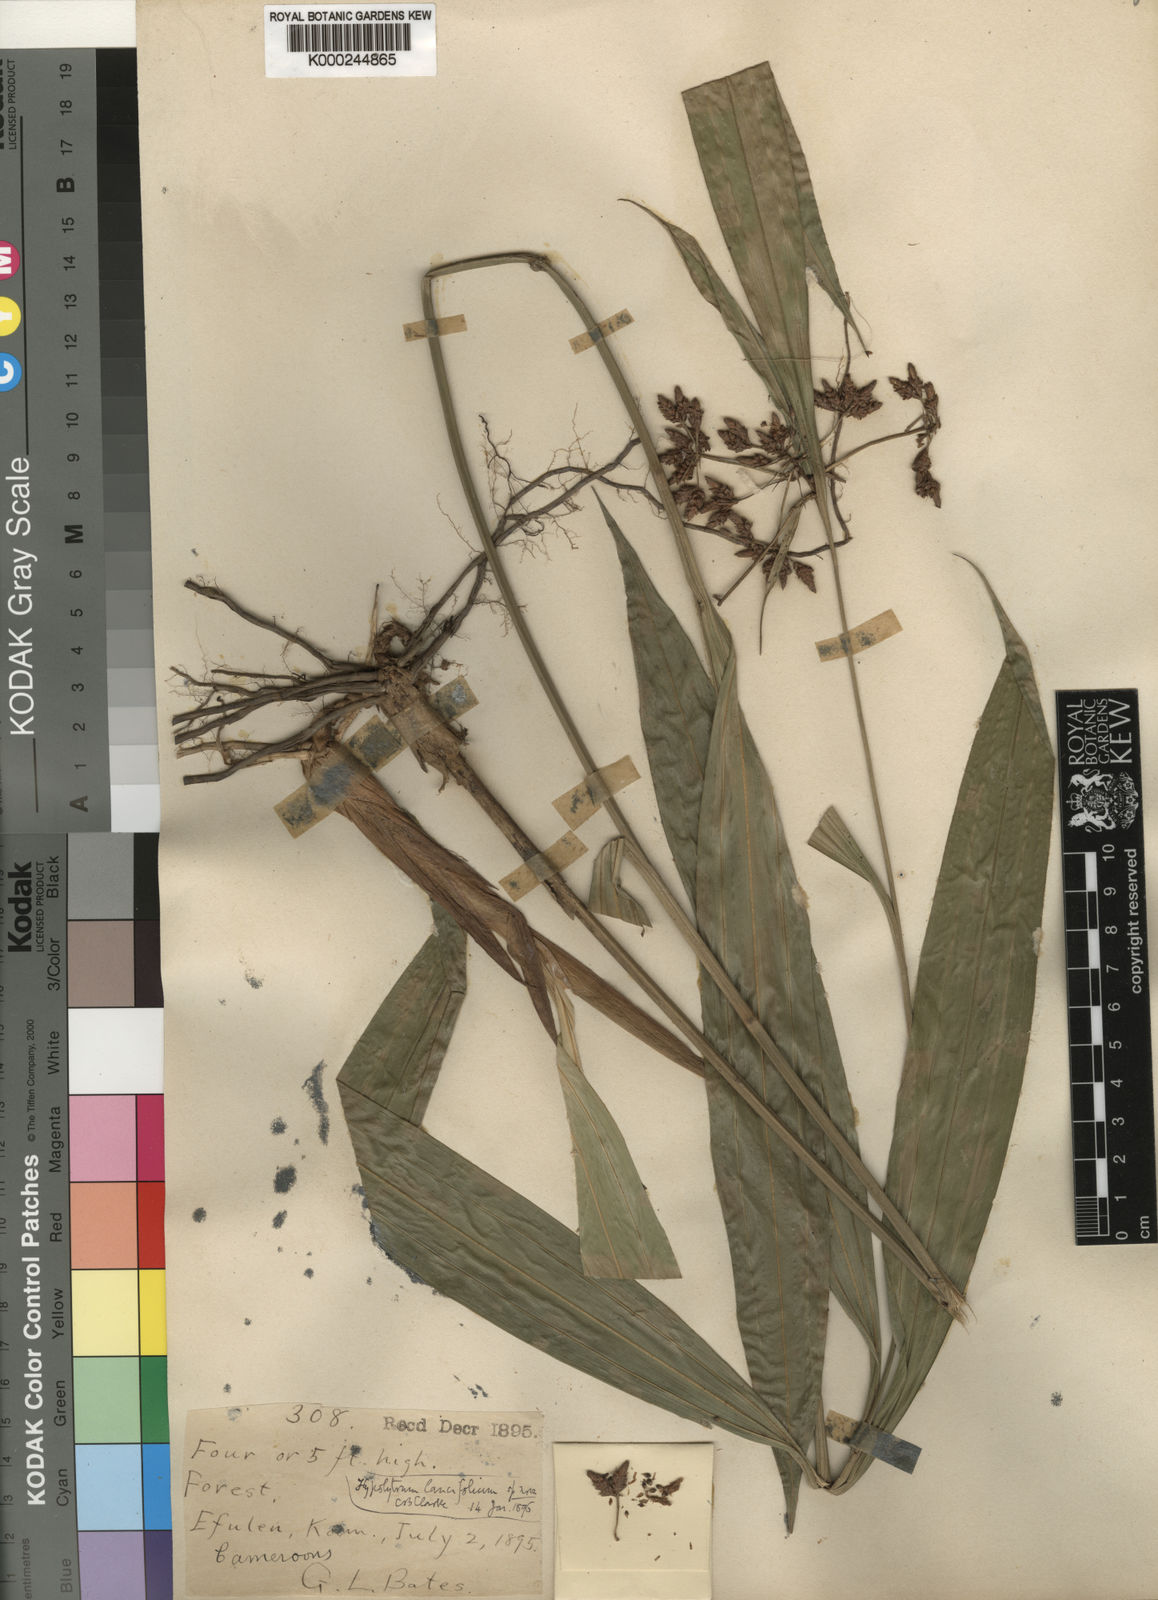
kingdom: Plantae
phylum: Tracheophyta
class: Liliopsida
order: Poales
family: Cyperaceae
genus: Hypolytrum
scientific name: Hypolytrum lancifolium
